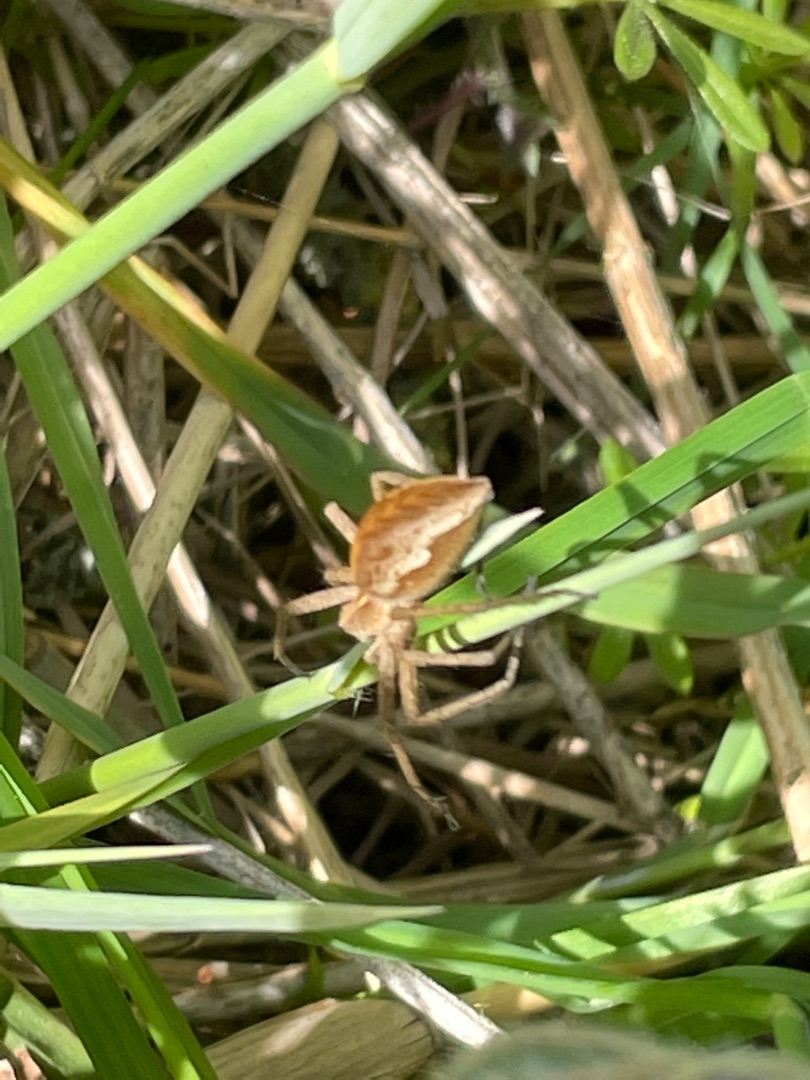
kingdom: Animalia
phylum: Arthropoda
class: Arachnida
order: Araneae
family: Pisauridae
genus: Pisaura
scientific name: Pisaura mirabilis
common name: Almindelig rovedderkop
